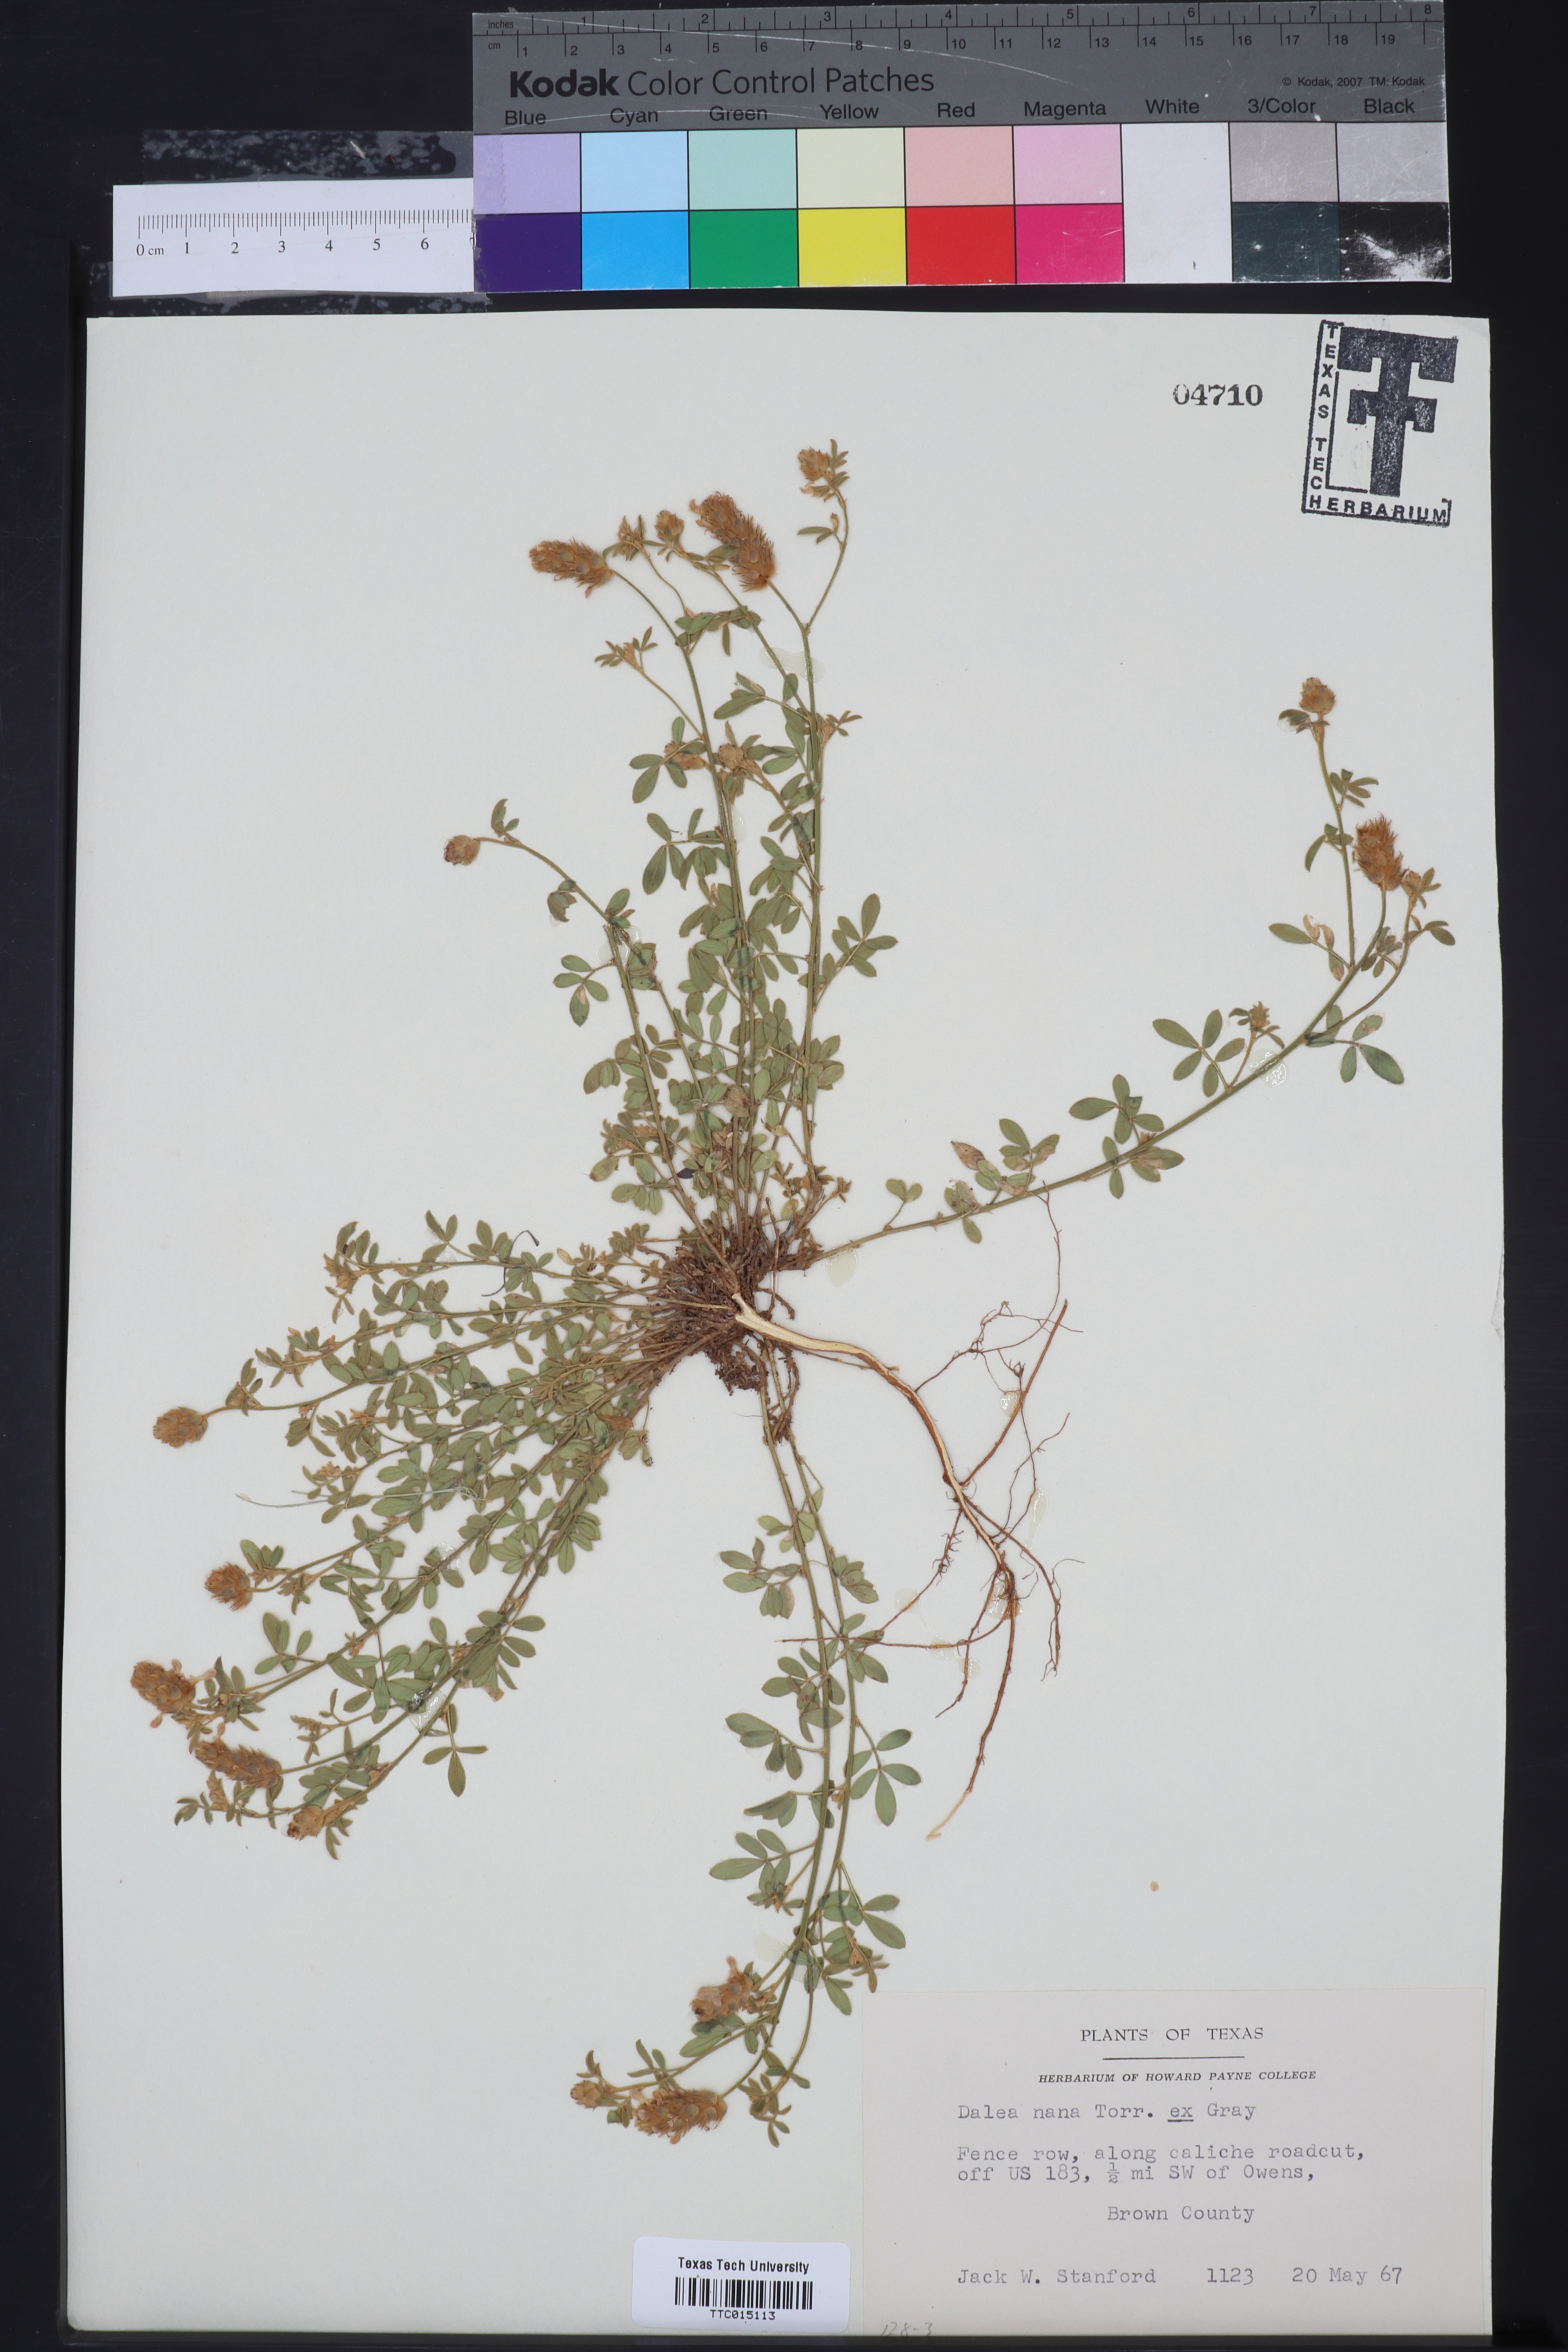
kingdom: Plantae
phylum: Tracheophyta
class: Magnoliopsida
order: Fabales
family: Fabaceae
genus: Dalea
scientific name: Dalea nana
